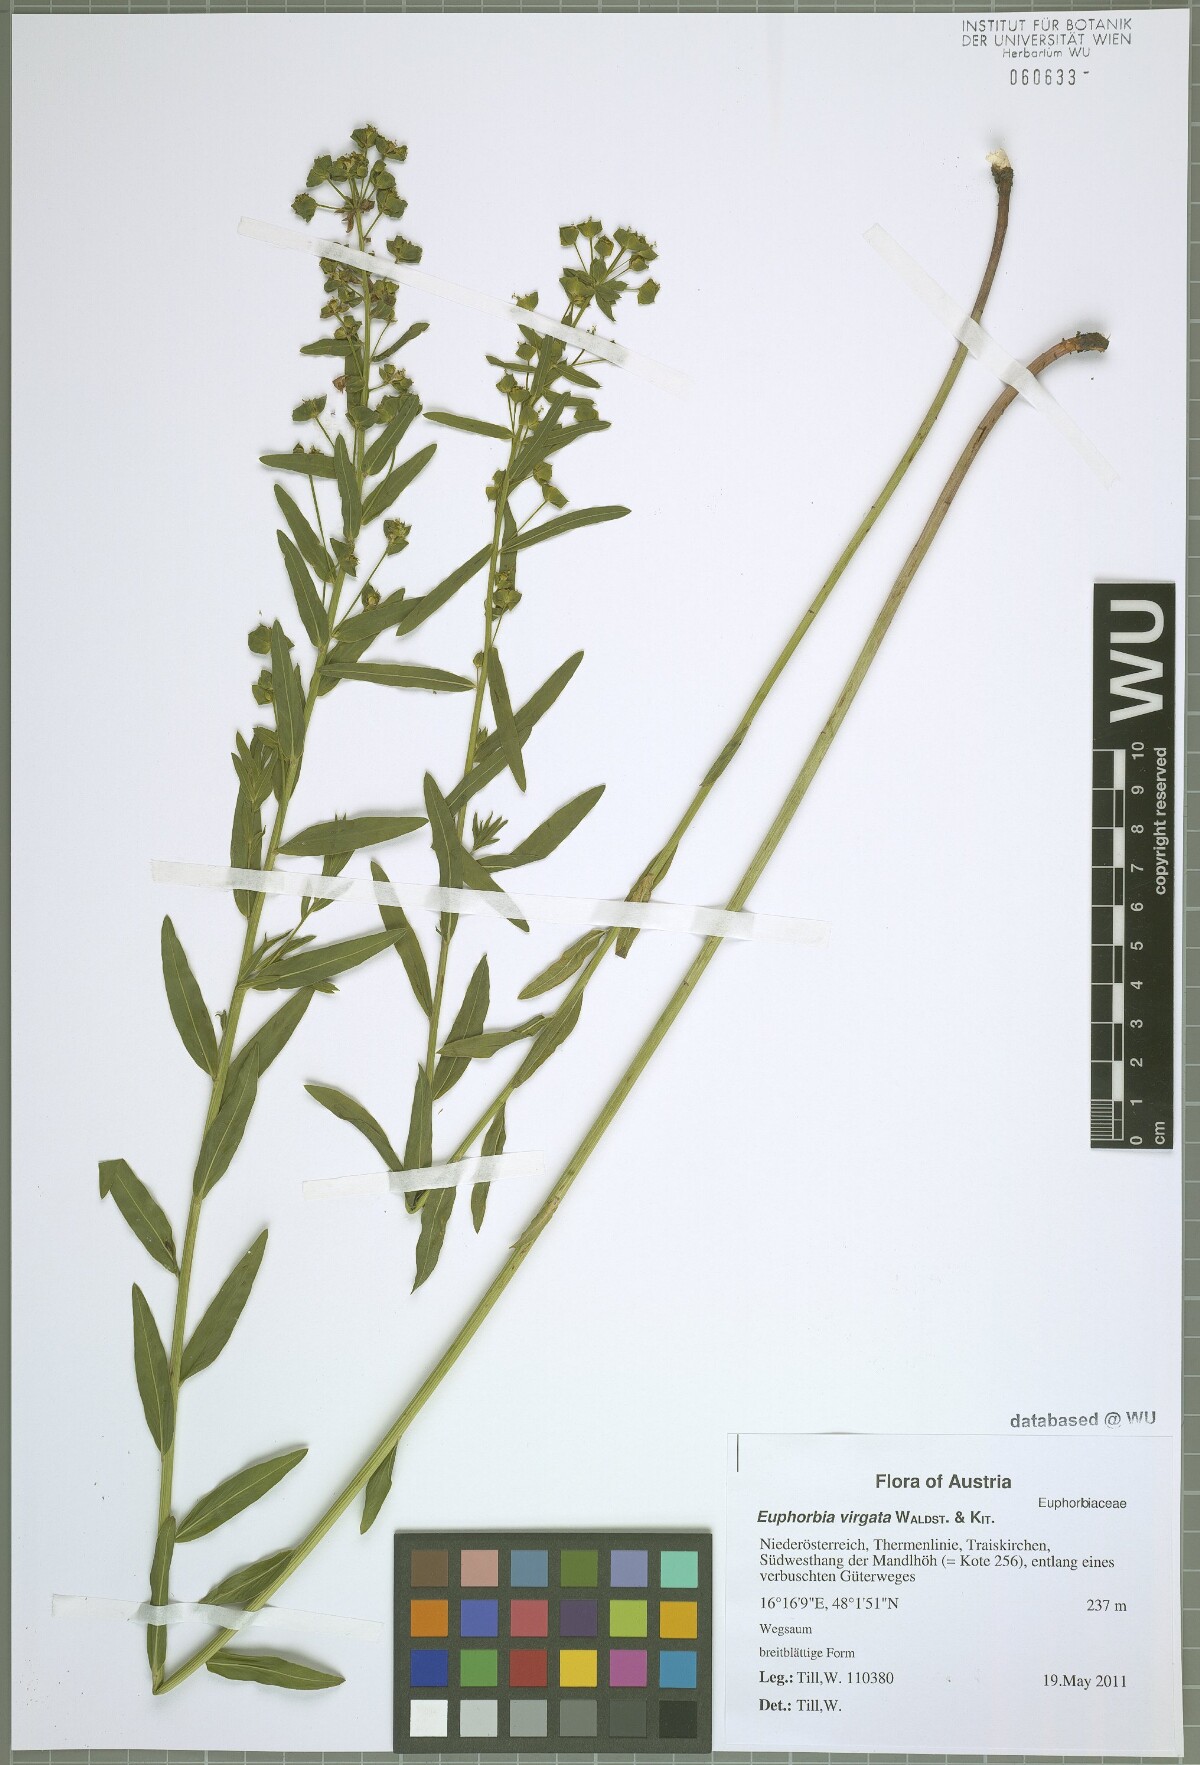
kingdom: Plantae
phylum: Tracheophyta
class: Magnoliopsida
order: Malpighiales
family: Euphorbiaceae
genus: Euphorbia
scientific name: Euphorbia virgata
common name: Leafy spurge
